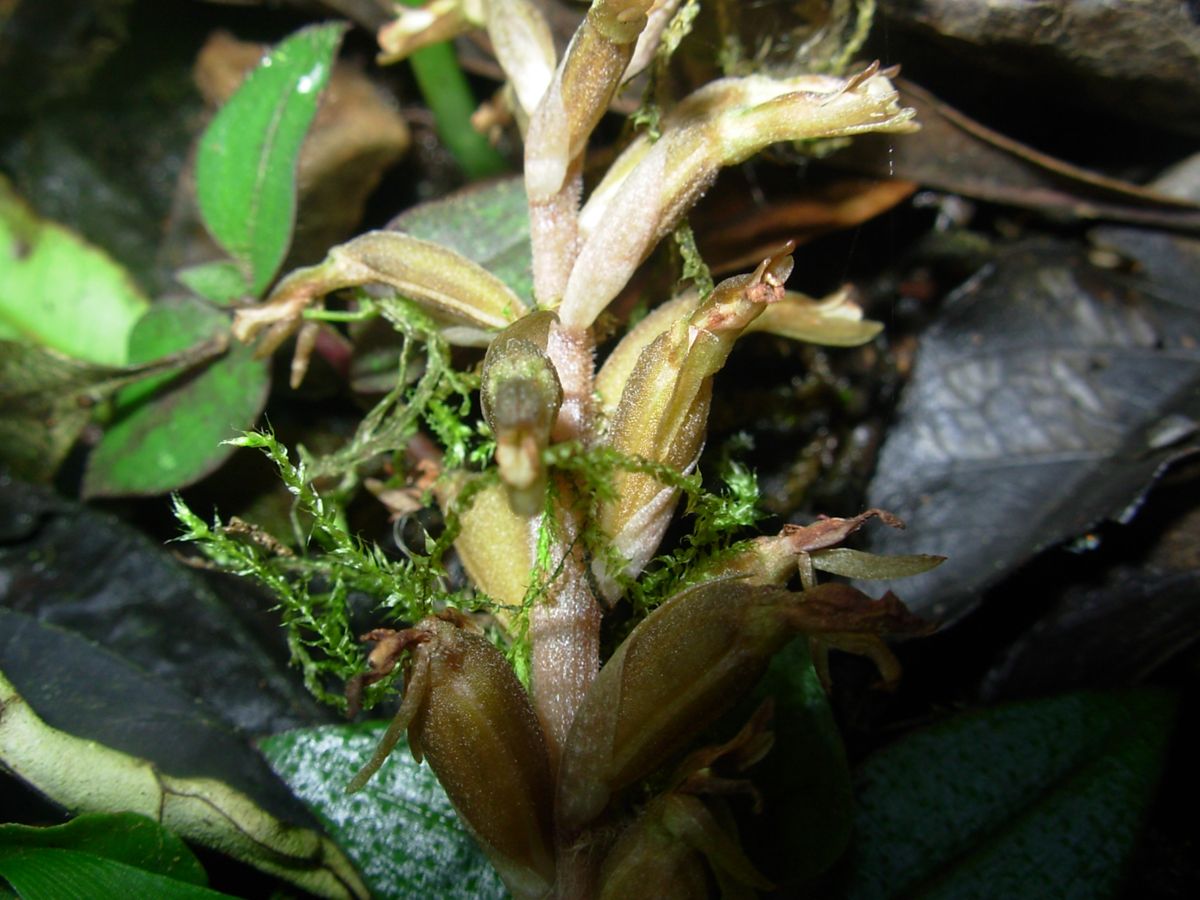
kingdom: Plantae
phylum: Tracheophyta
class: Liliopsida
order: Asparagales
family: Orchidaceae
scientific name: Orchidaceae
